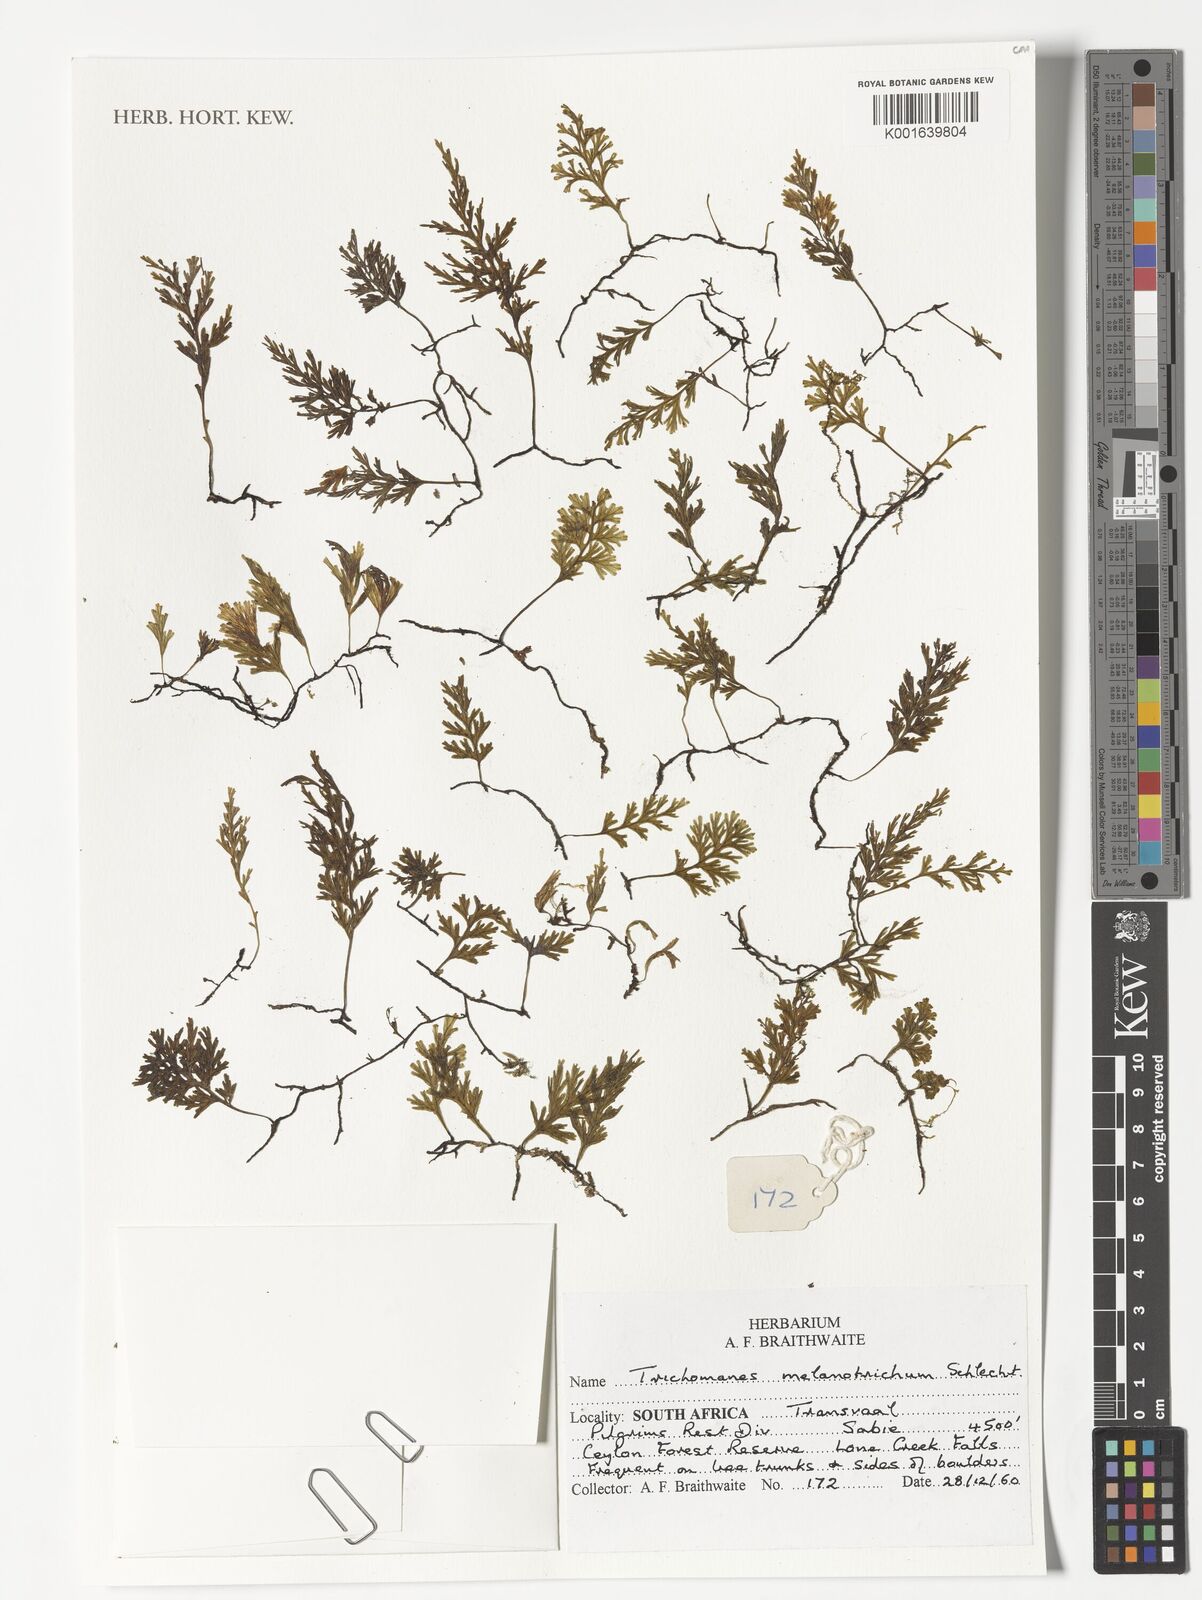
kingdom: Plantae
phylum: Tracheophyta
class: Polypodiopsida
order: Hymenophyllales
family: Hymenophyllaceae
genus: Crepidomanes
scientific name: Crepidomanes melanotrichum
